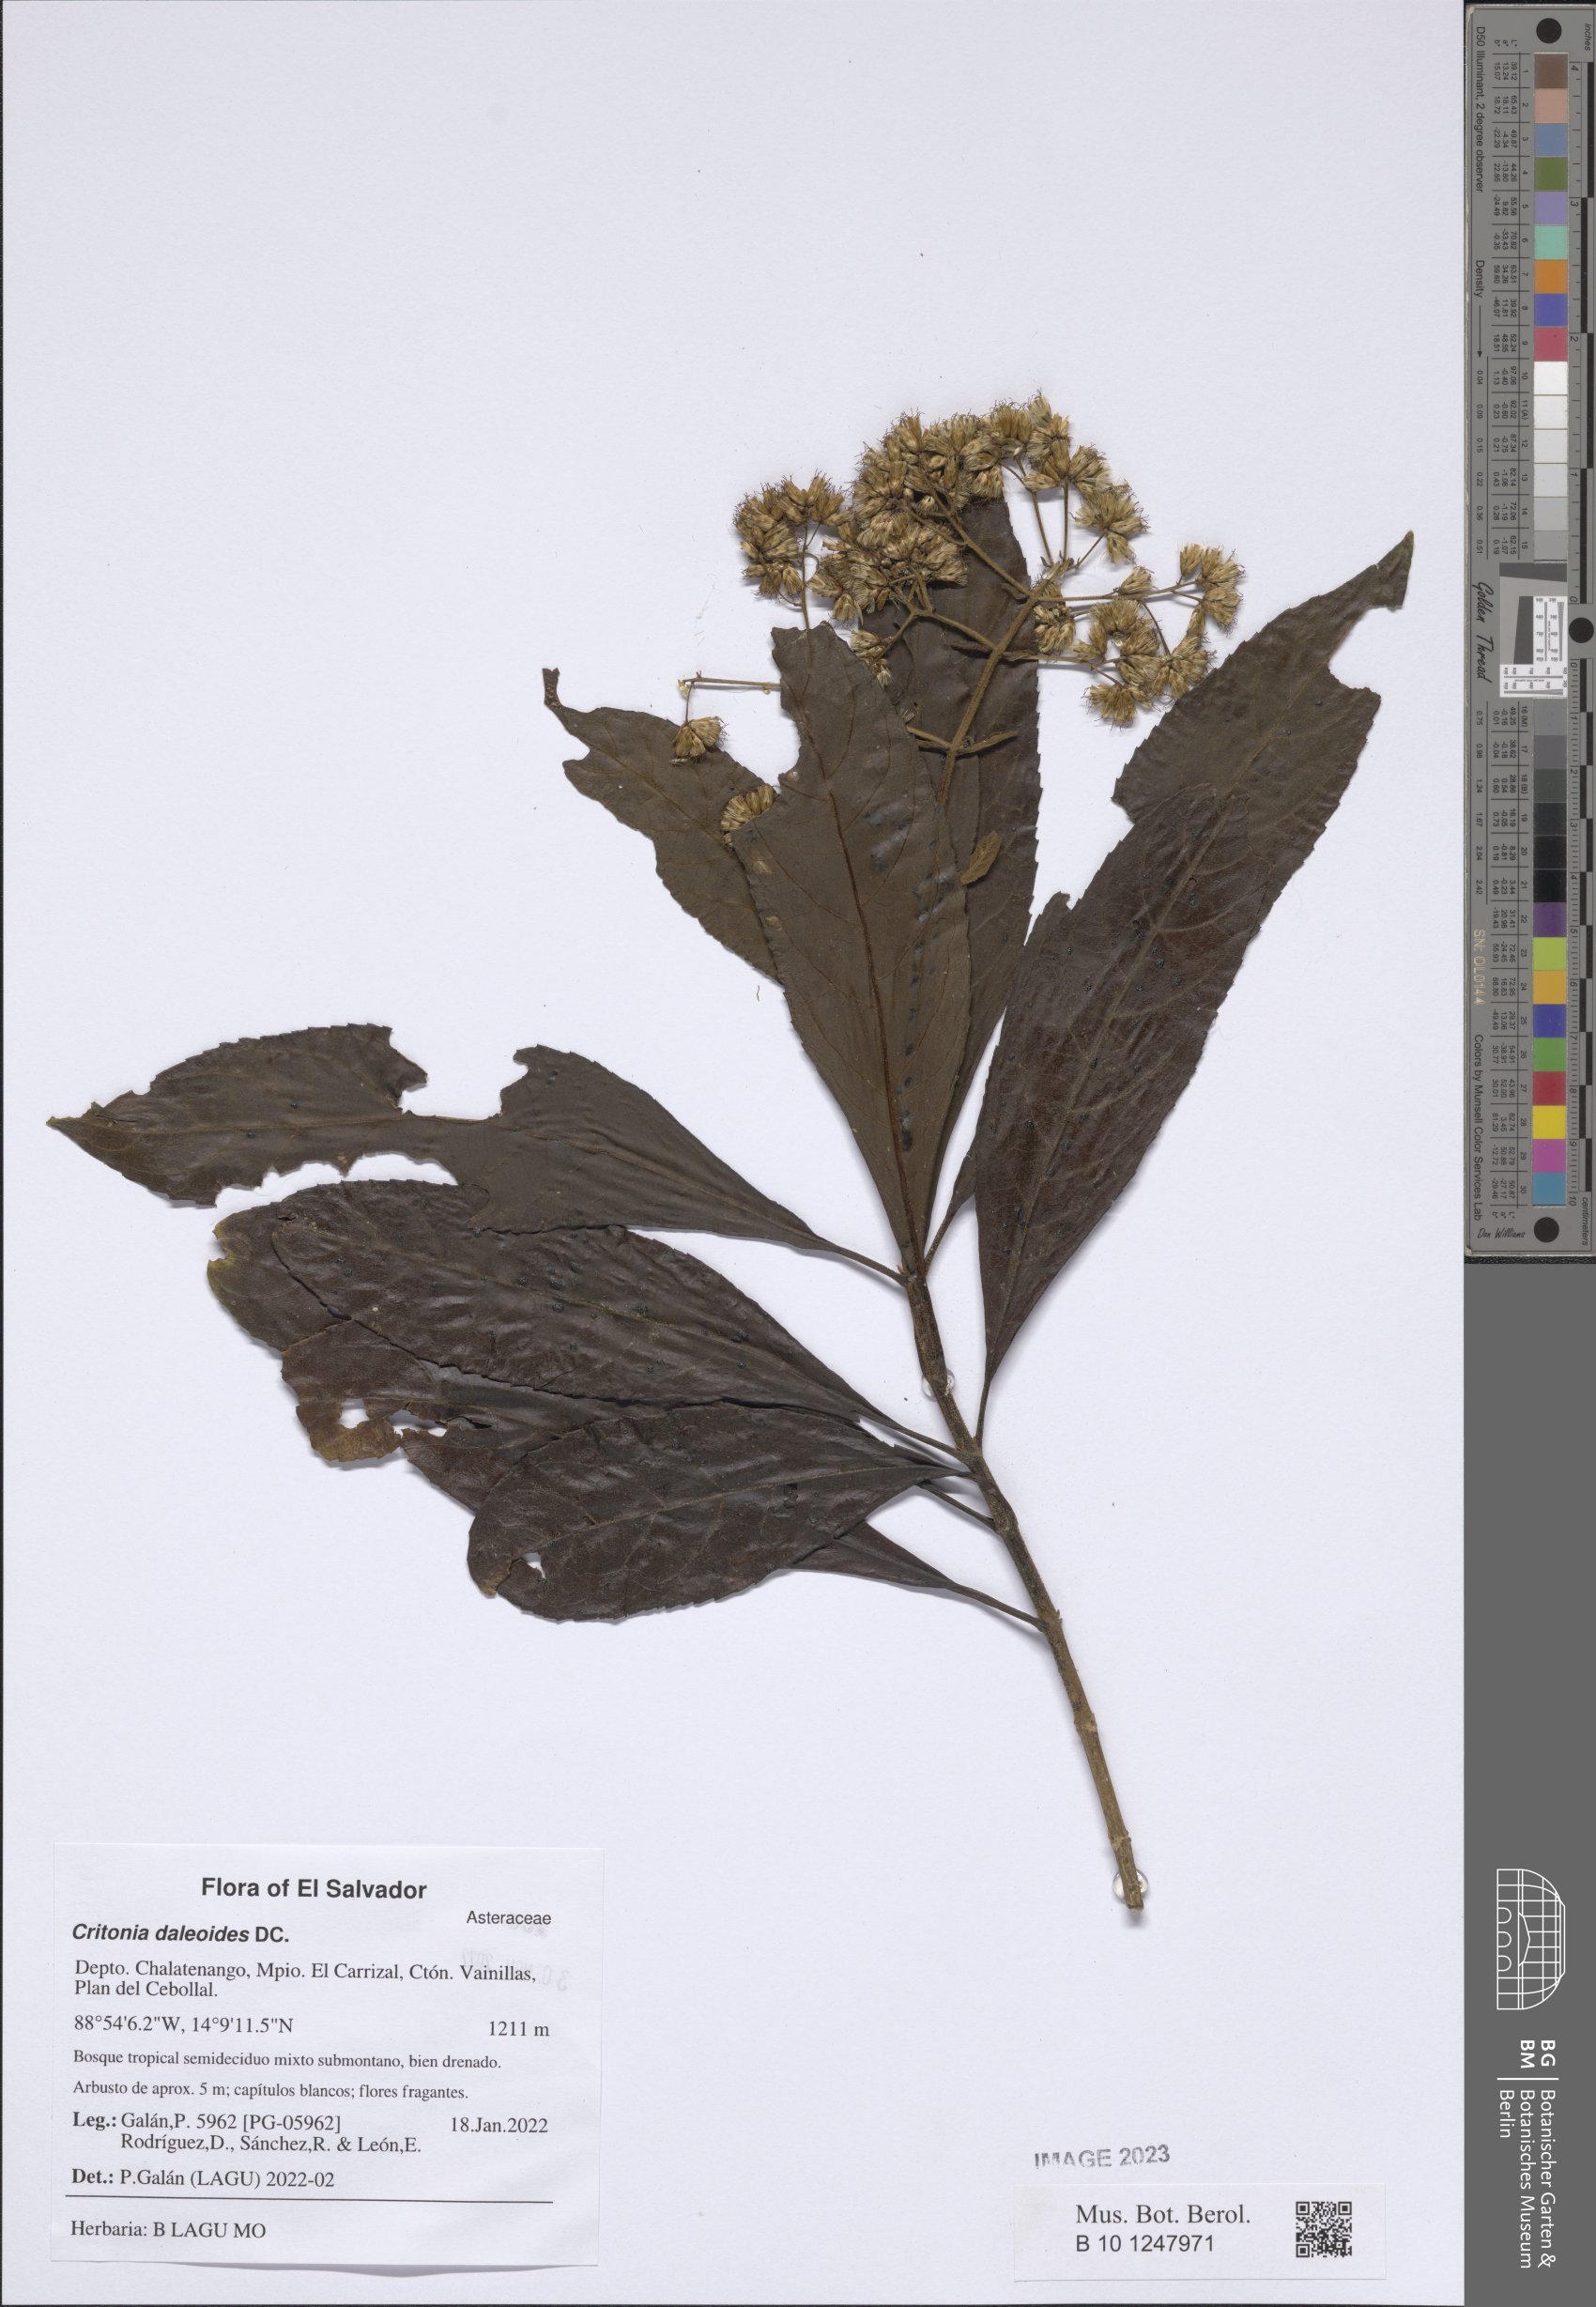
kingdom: Plantae
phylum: Tracheophyta
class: Magnoliopsida
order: Asterales
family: Asteraceae
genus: Critonia
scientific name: Critonia daleoides
